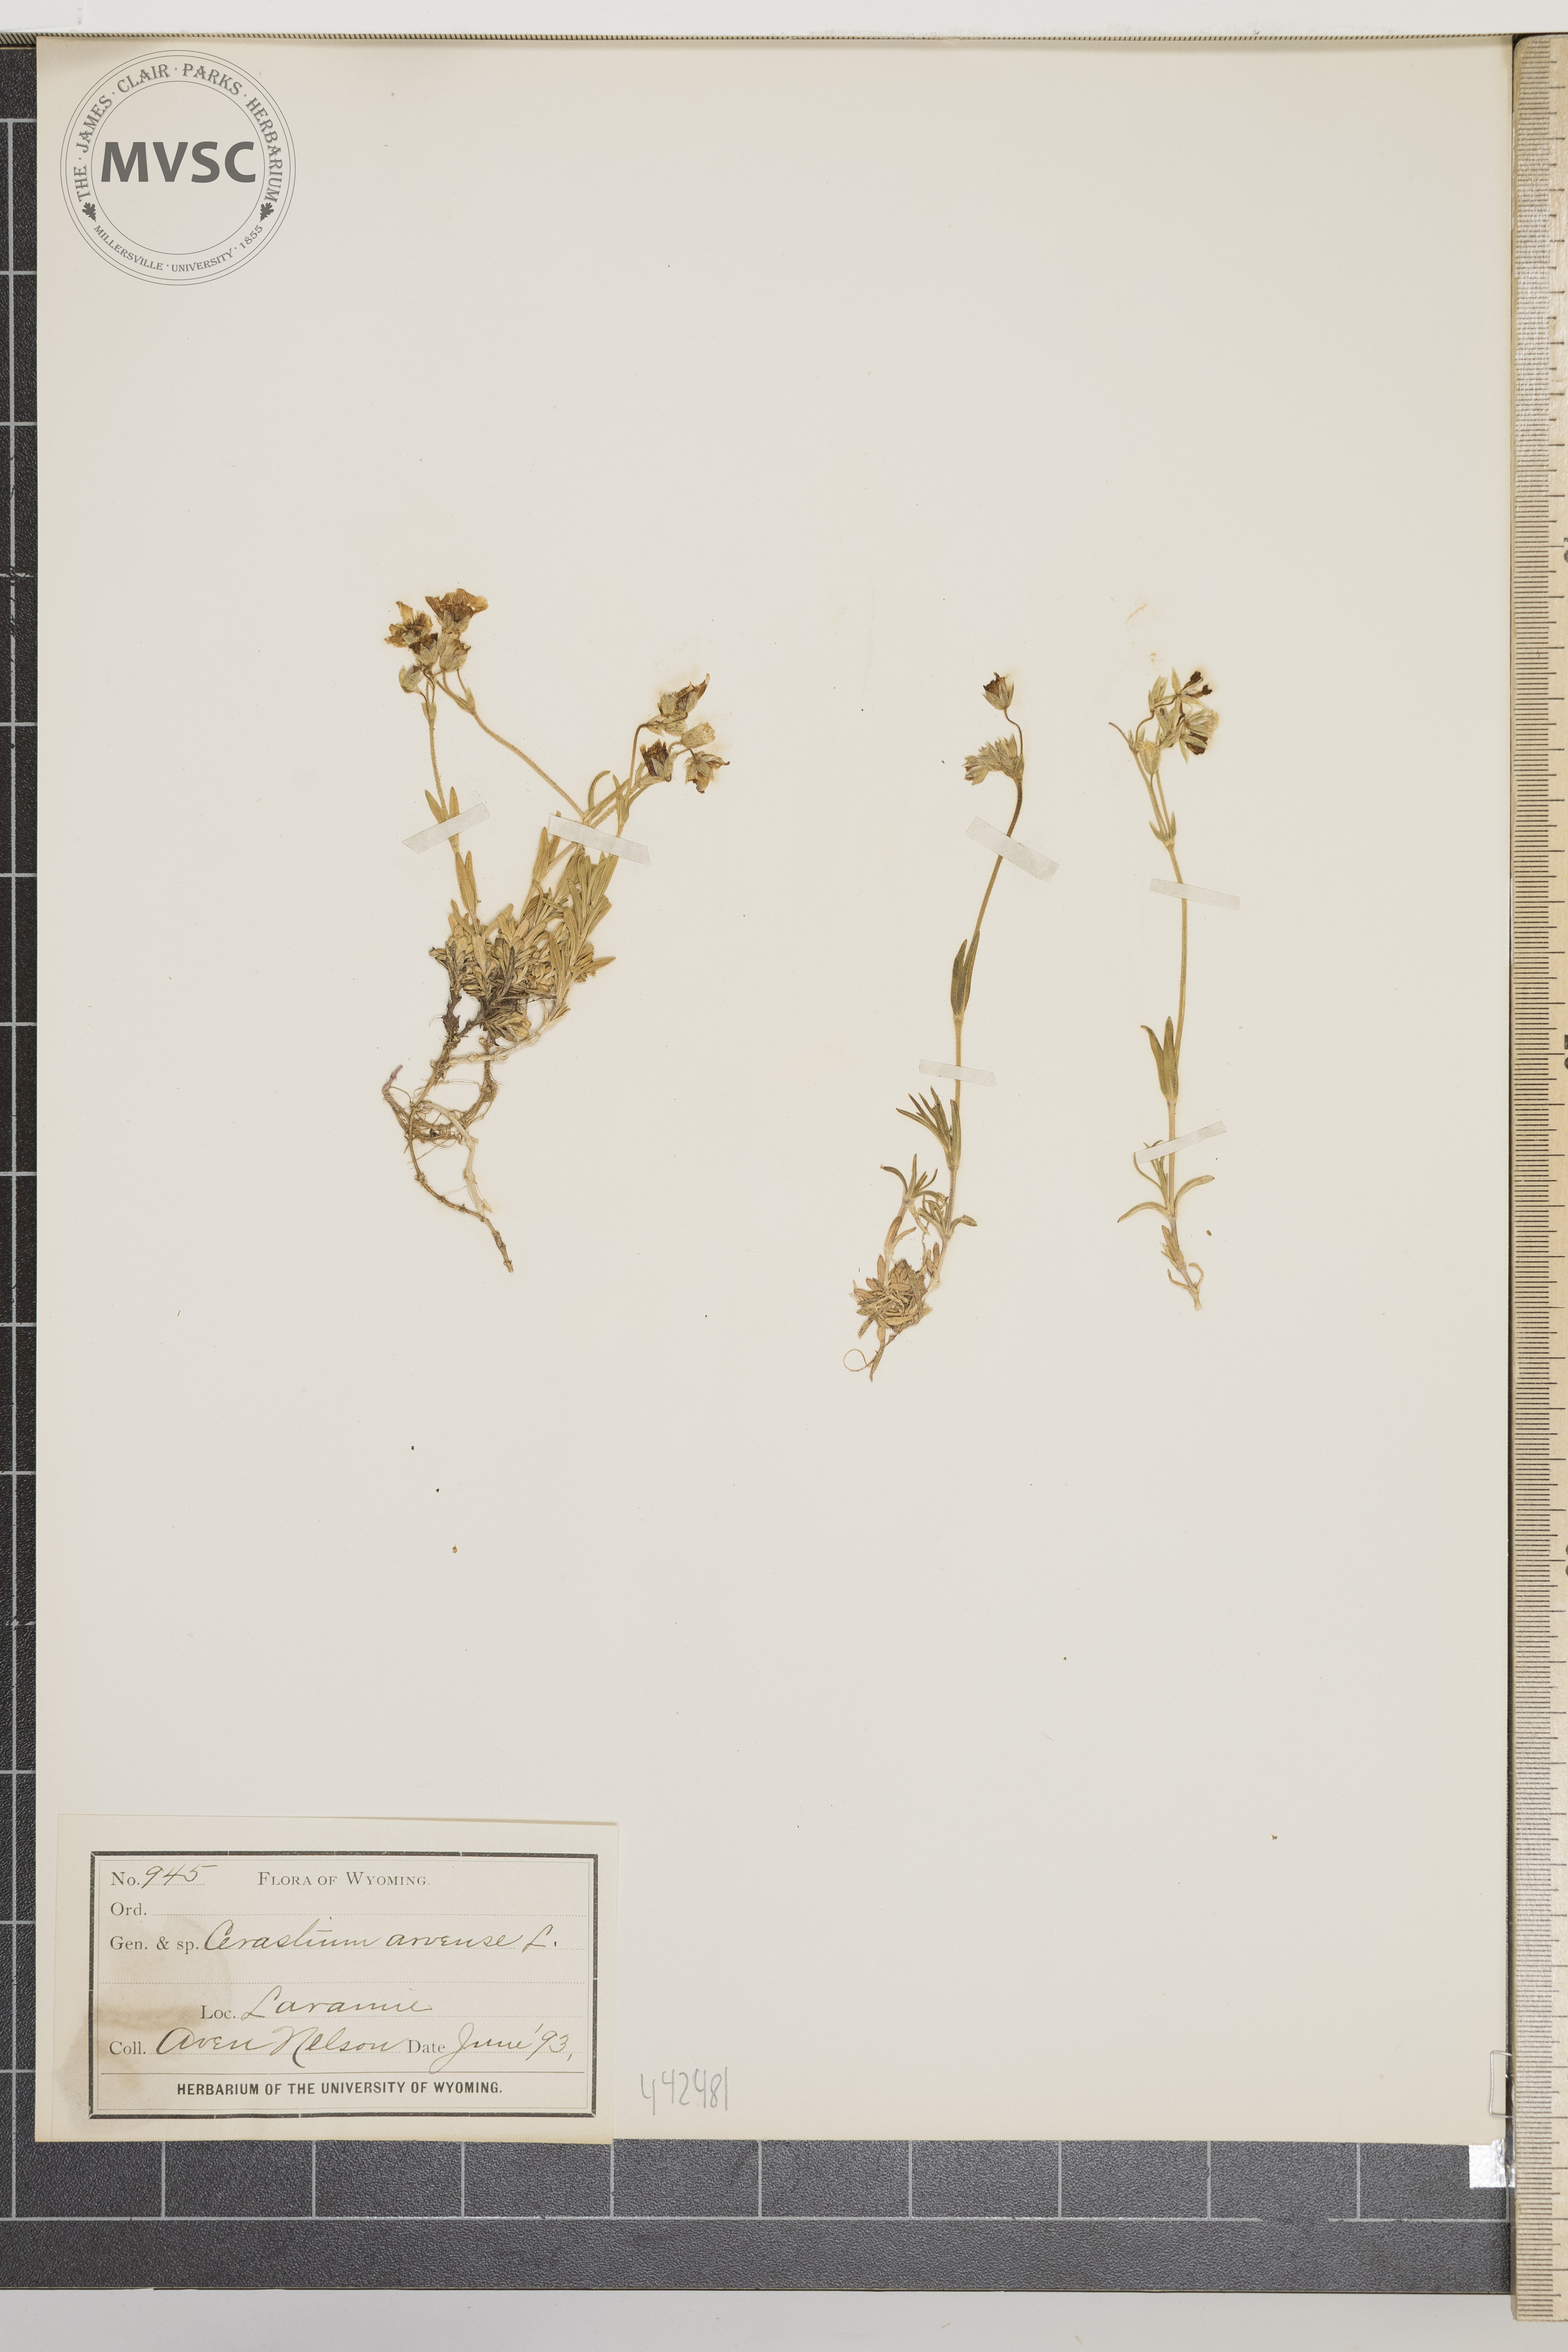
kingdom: Plantae
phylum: Tracheophyta
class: Magnoliopsida
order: Caryophyllales
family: Caryophyllaceae
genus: Cerastium
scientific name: Cerastium arvense
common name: Field mouse-ear
